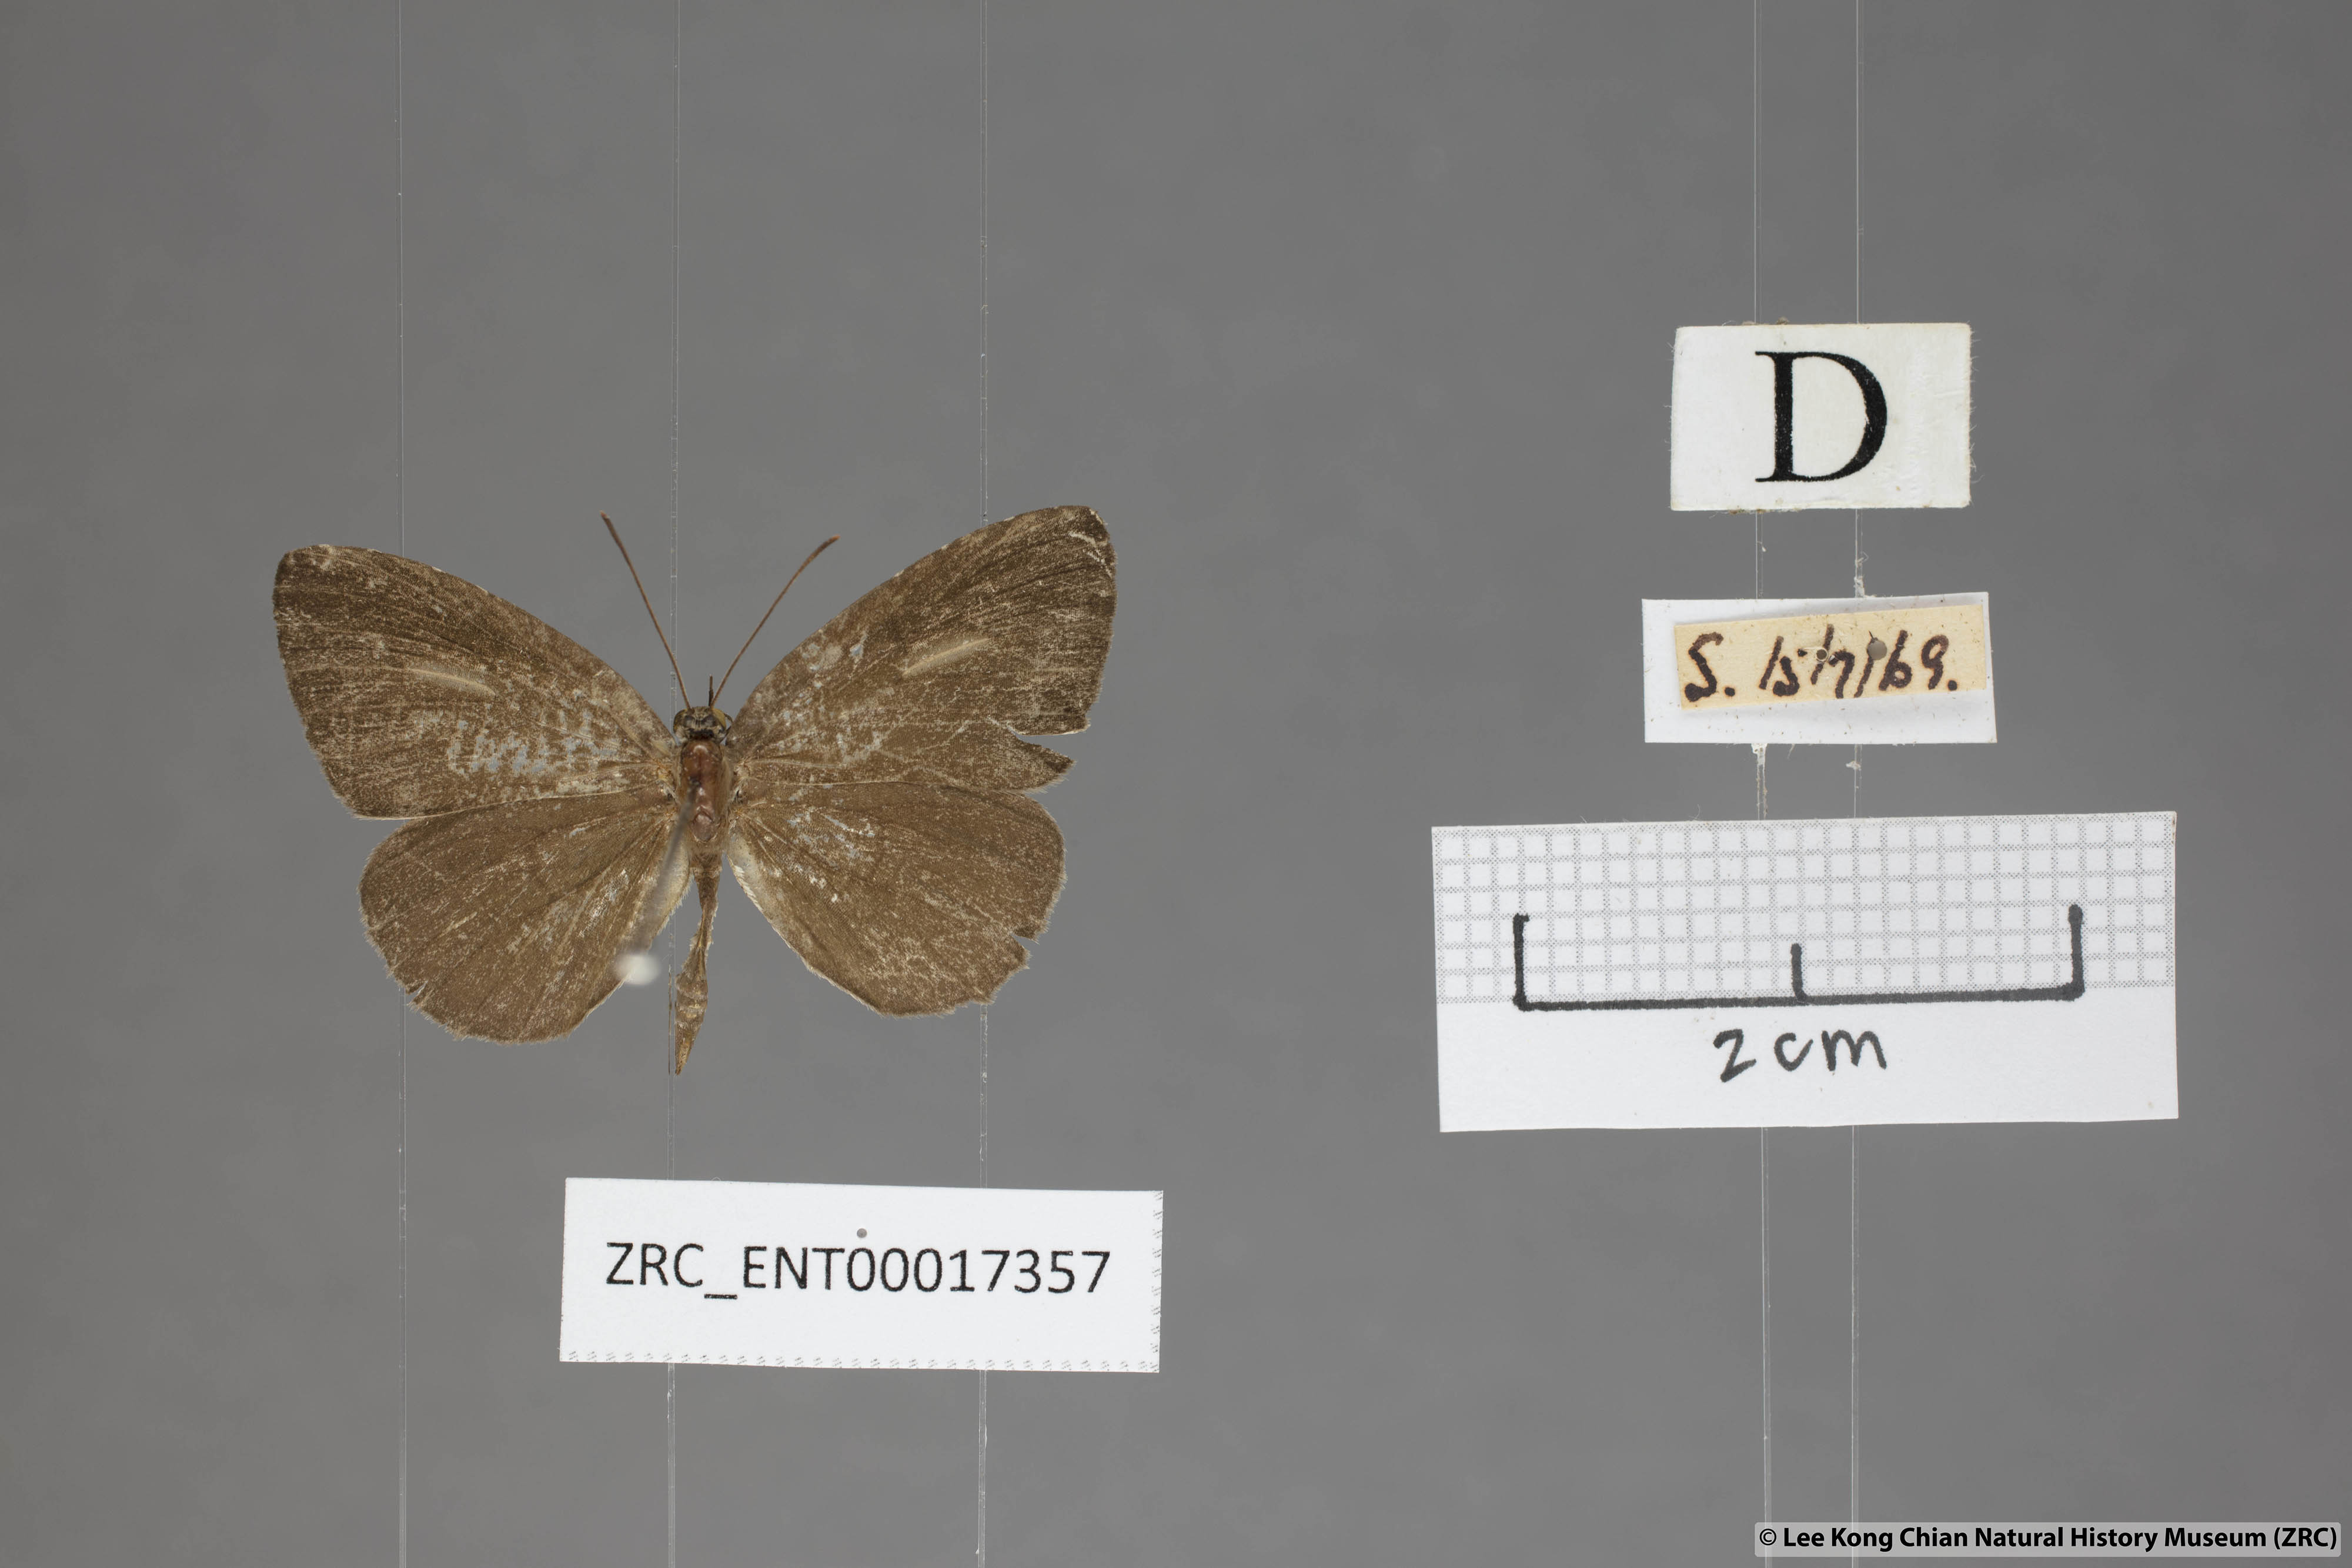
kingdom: Animalia
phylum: Arthropoda
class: Insecta
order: Lepidoptera
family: Lycaenidae
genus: Allotinus
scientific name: Allotinus unicolor
